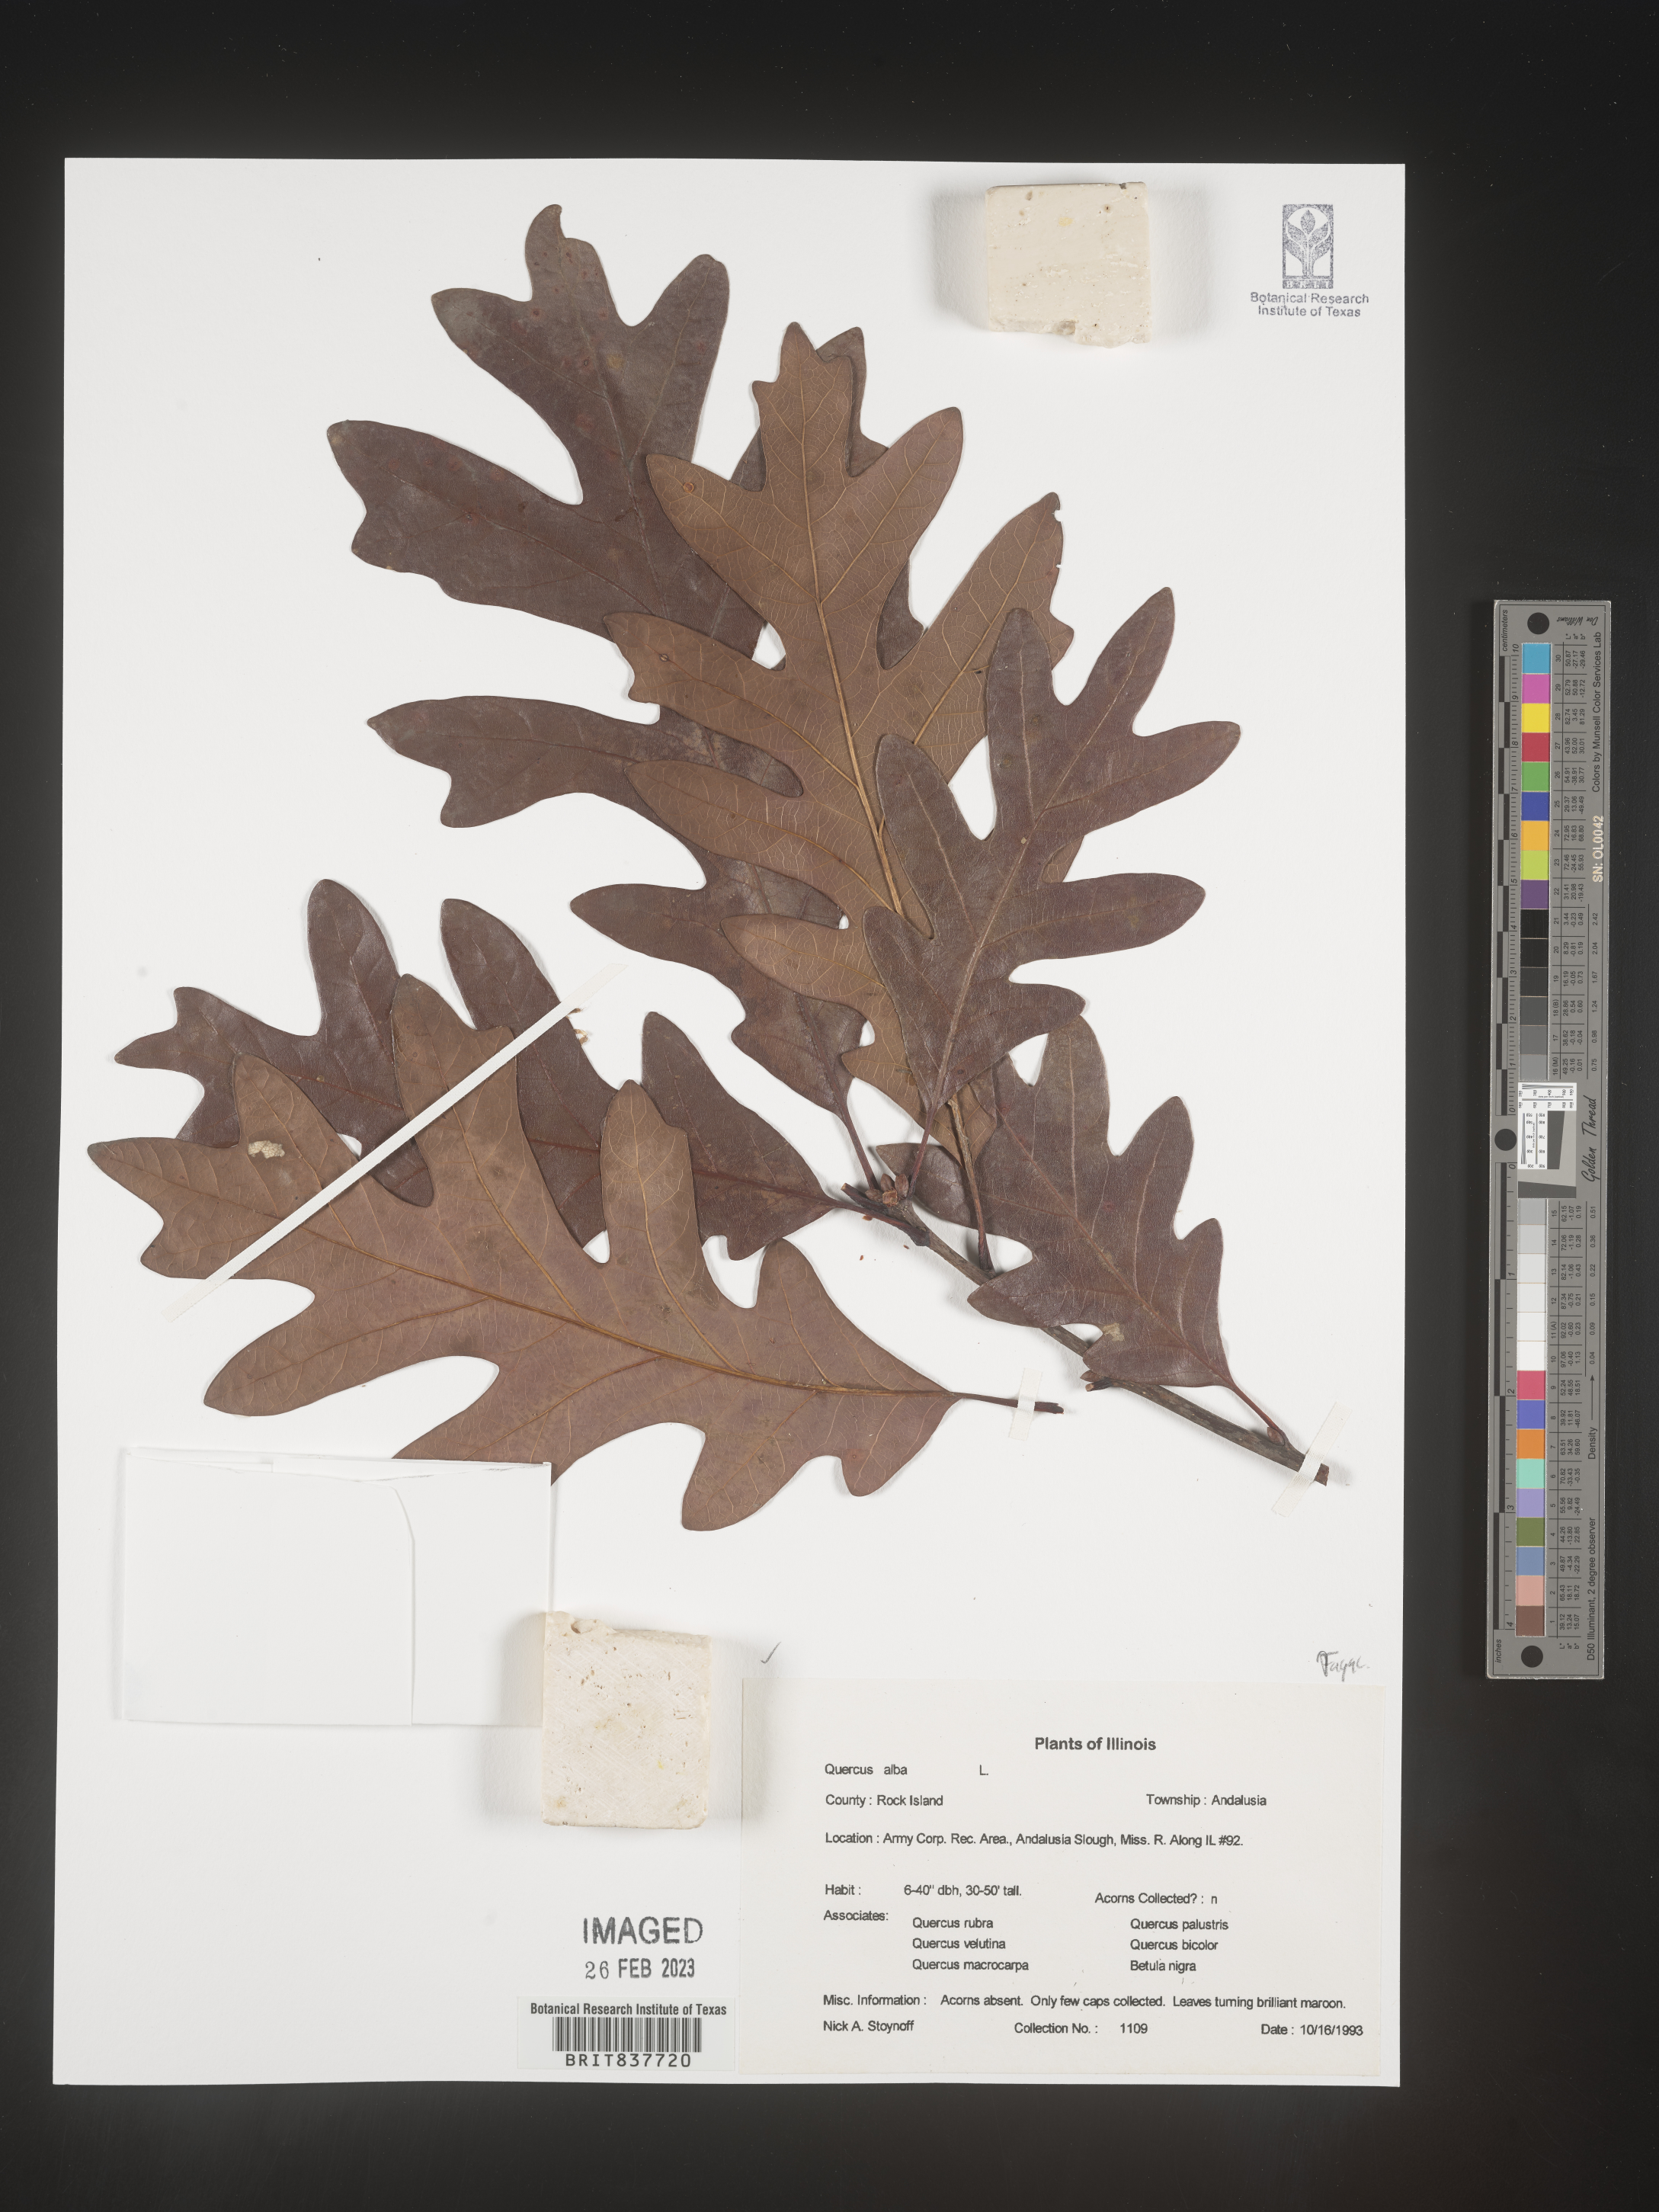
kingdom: Plantae
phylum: Tracheophyta
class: Magnoliopsida
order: Fagales
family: Fagaceae
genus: Quercus
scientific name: Quercus alba
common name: White oak
